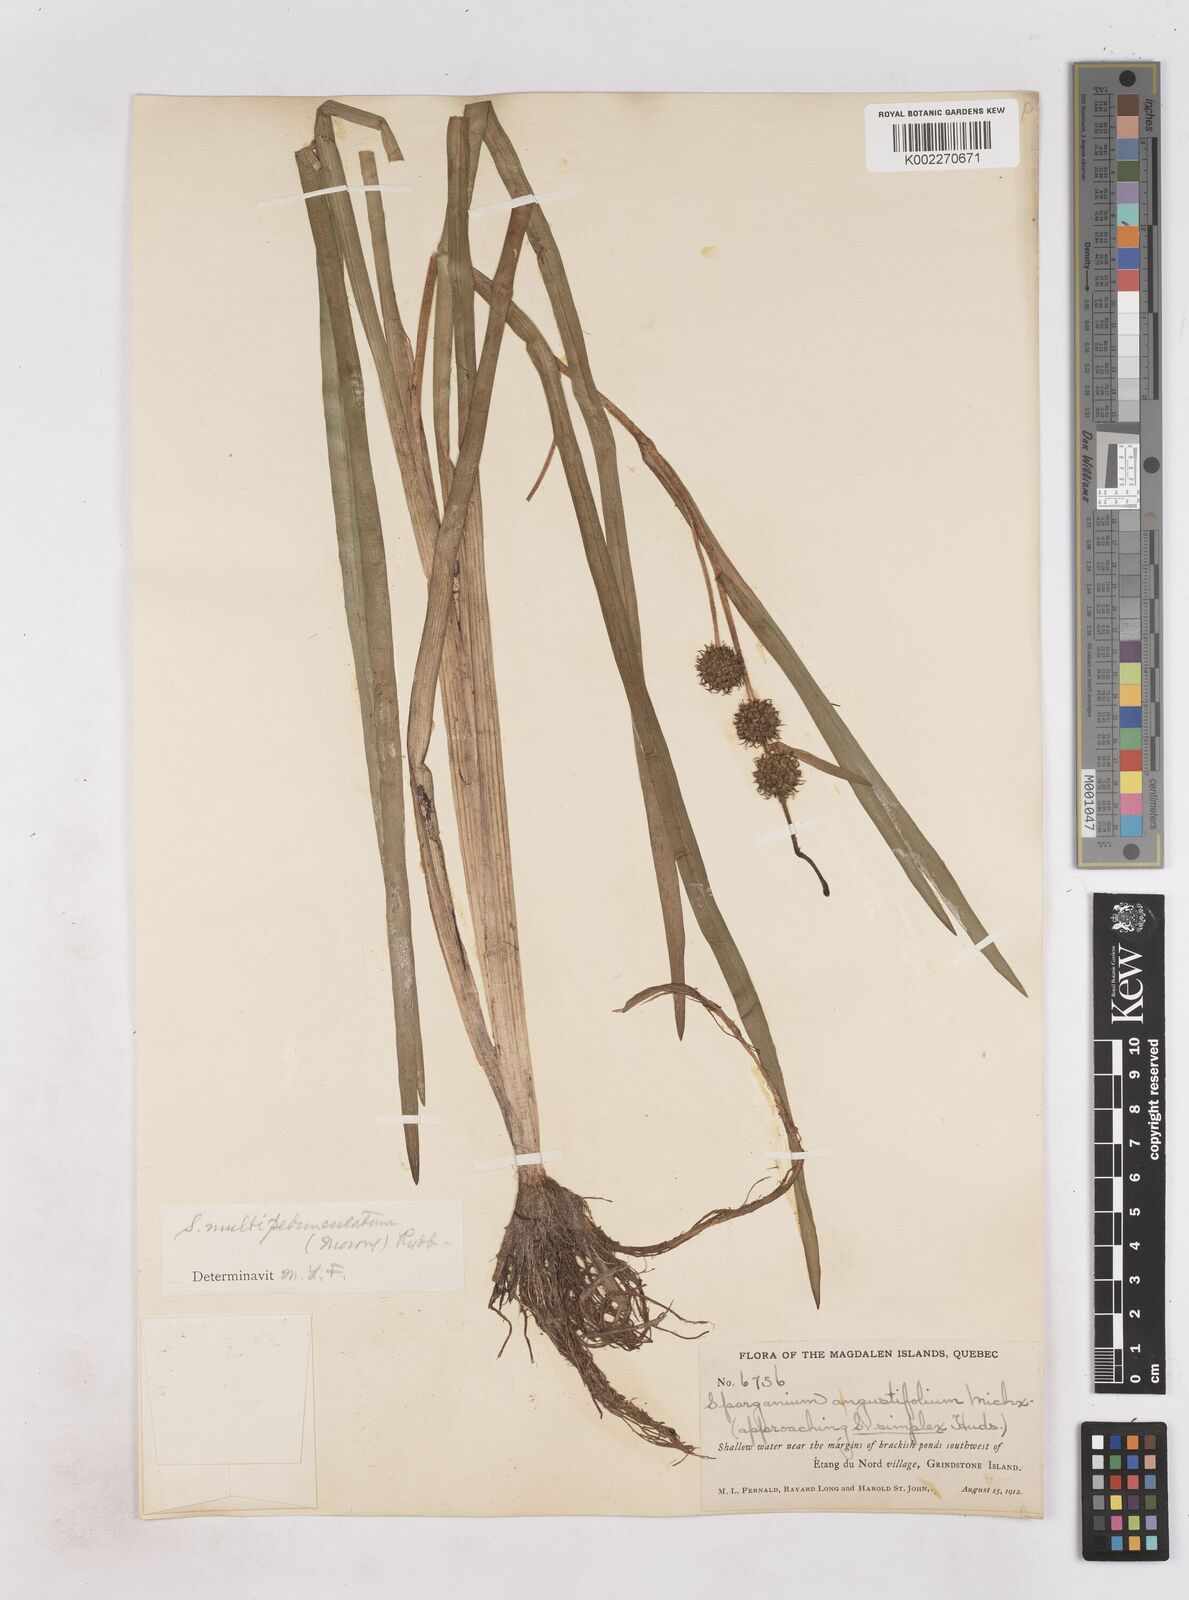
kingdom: Plantae
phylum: Tracheophyta
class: Liliopsida
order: Poales
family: Typhaceae
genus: Sparganium
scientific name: Sparganium emersum
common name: Unbranched bur-reed
